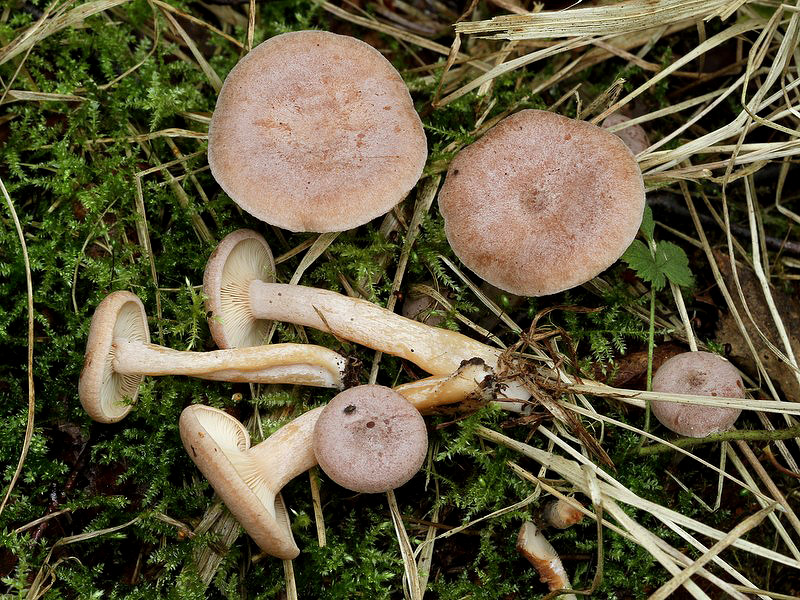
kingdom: Fungi
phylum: Basidiomycota
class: Agaricomycetes
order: Russulales
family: Russulaceae
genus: Lactarius
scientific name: Lactarius glyciosmus
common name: kokos-mælkehat
